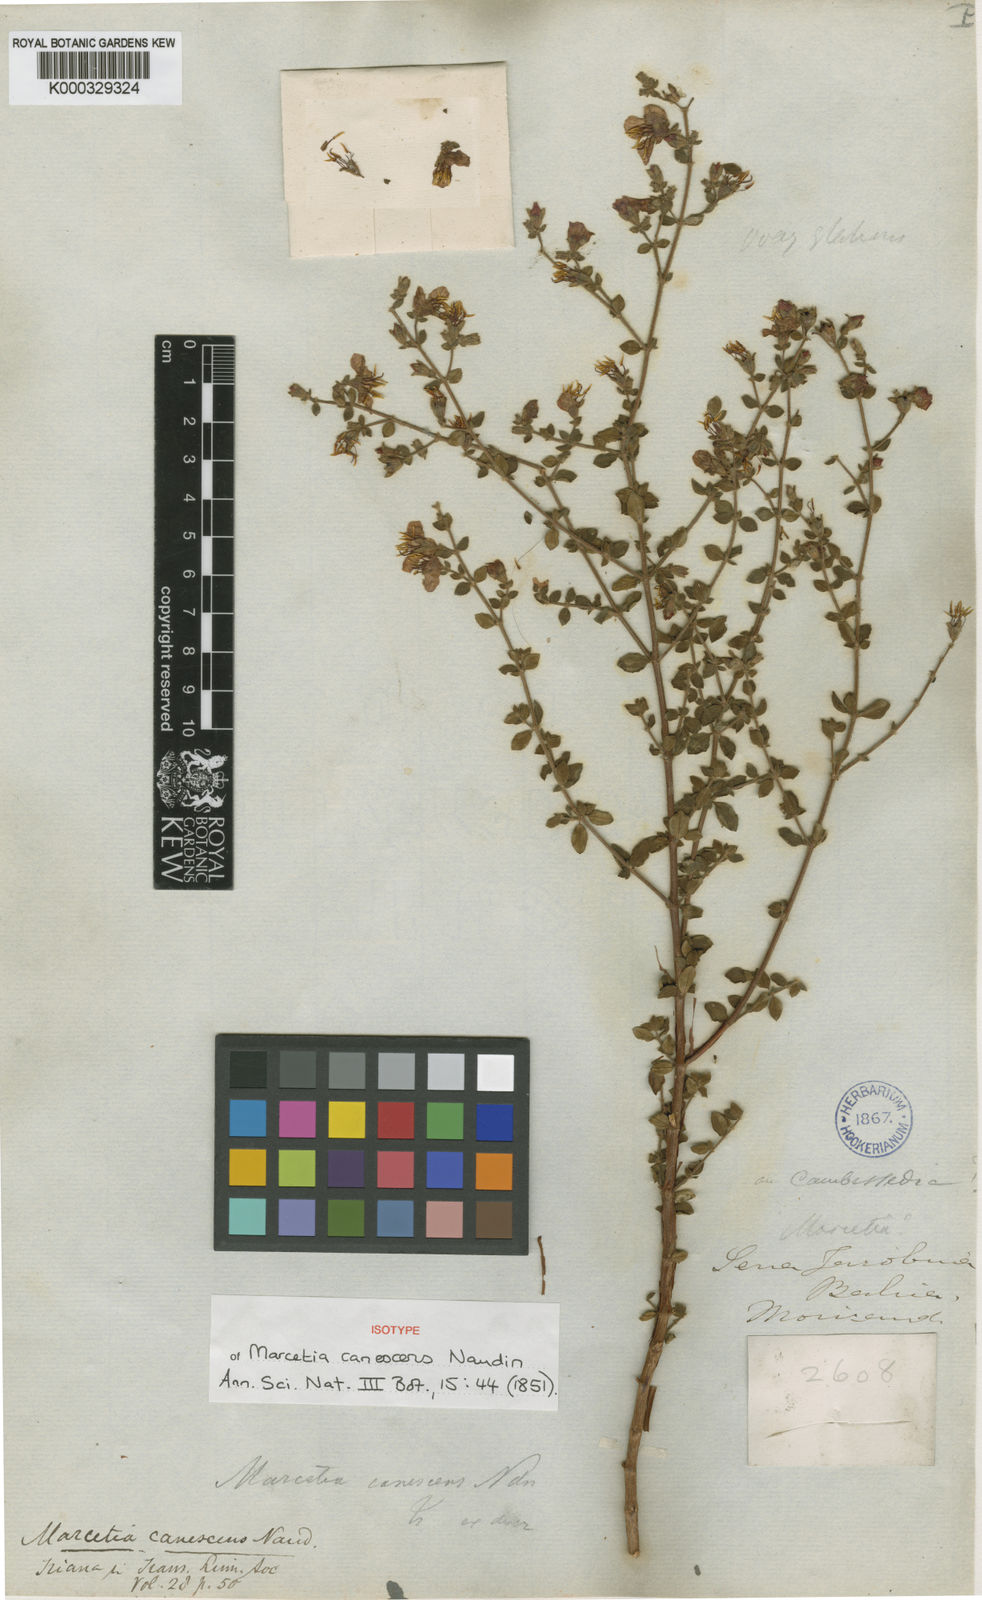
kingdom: Plantae
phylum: Tracheophyta
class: Magnoliopsida
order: Myrtales
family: Melastomataceae
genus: Marcetia
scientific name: Marcetia canescens
